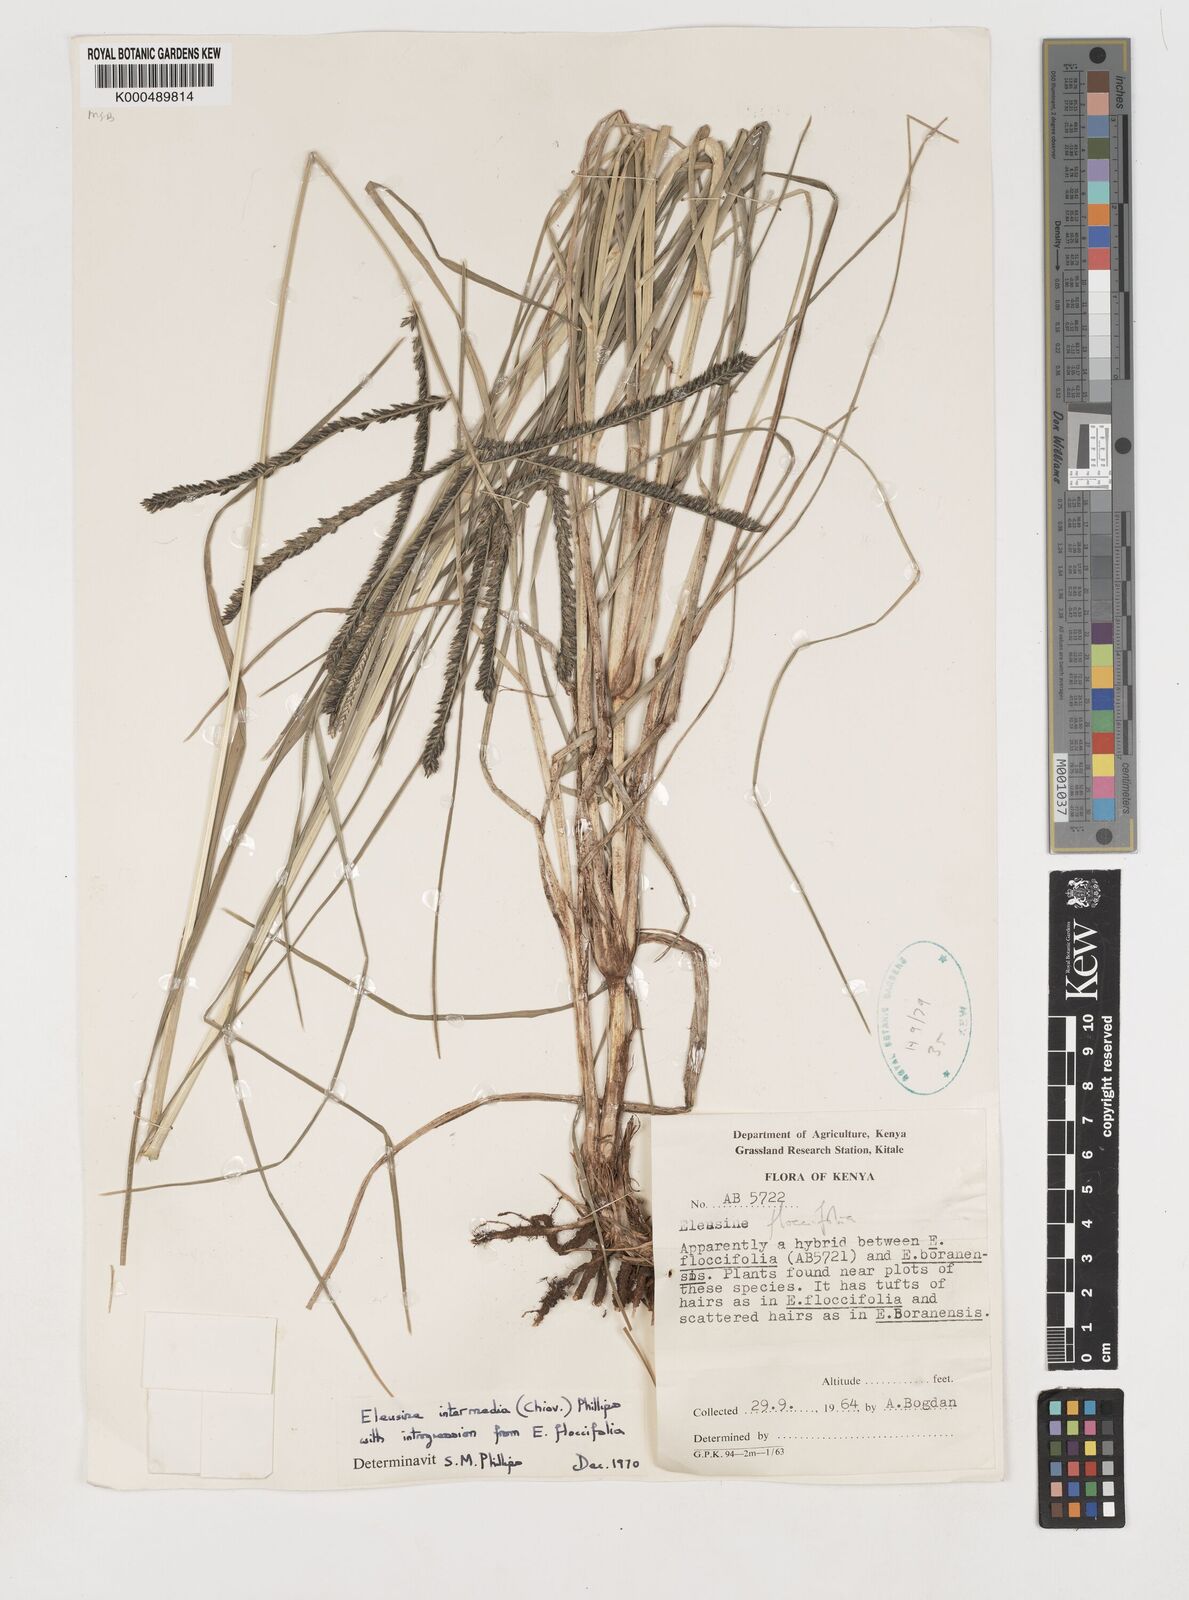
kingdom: Plantae
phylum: Tracheophyta
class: Liliopsida
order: Poales
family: Poaceae
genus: Eleusine
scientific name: Eleusine intermedia
